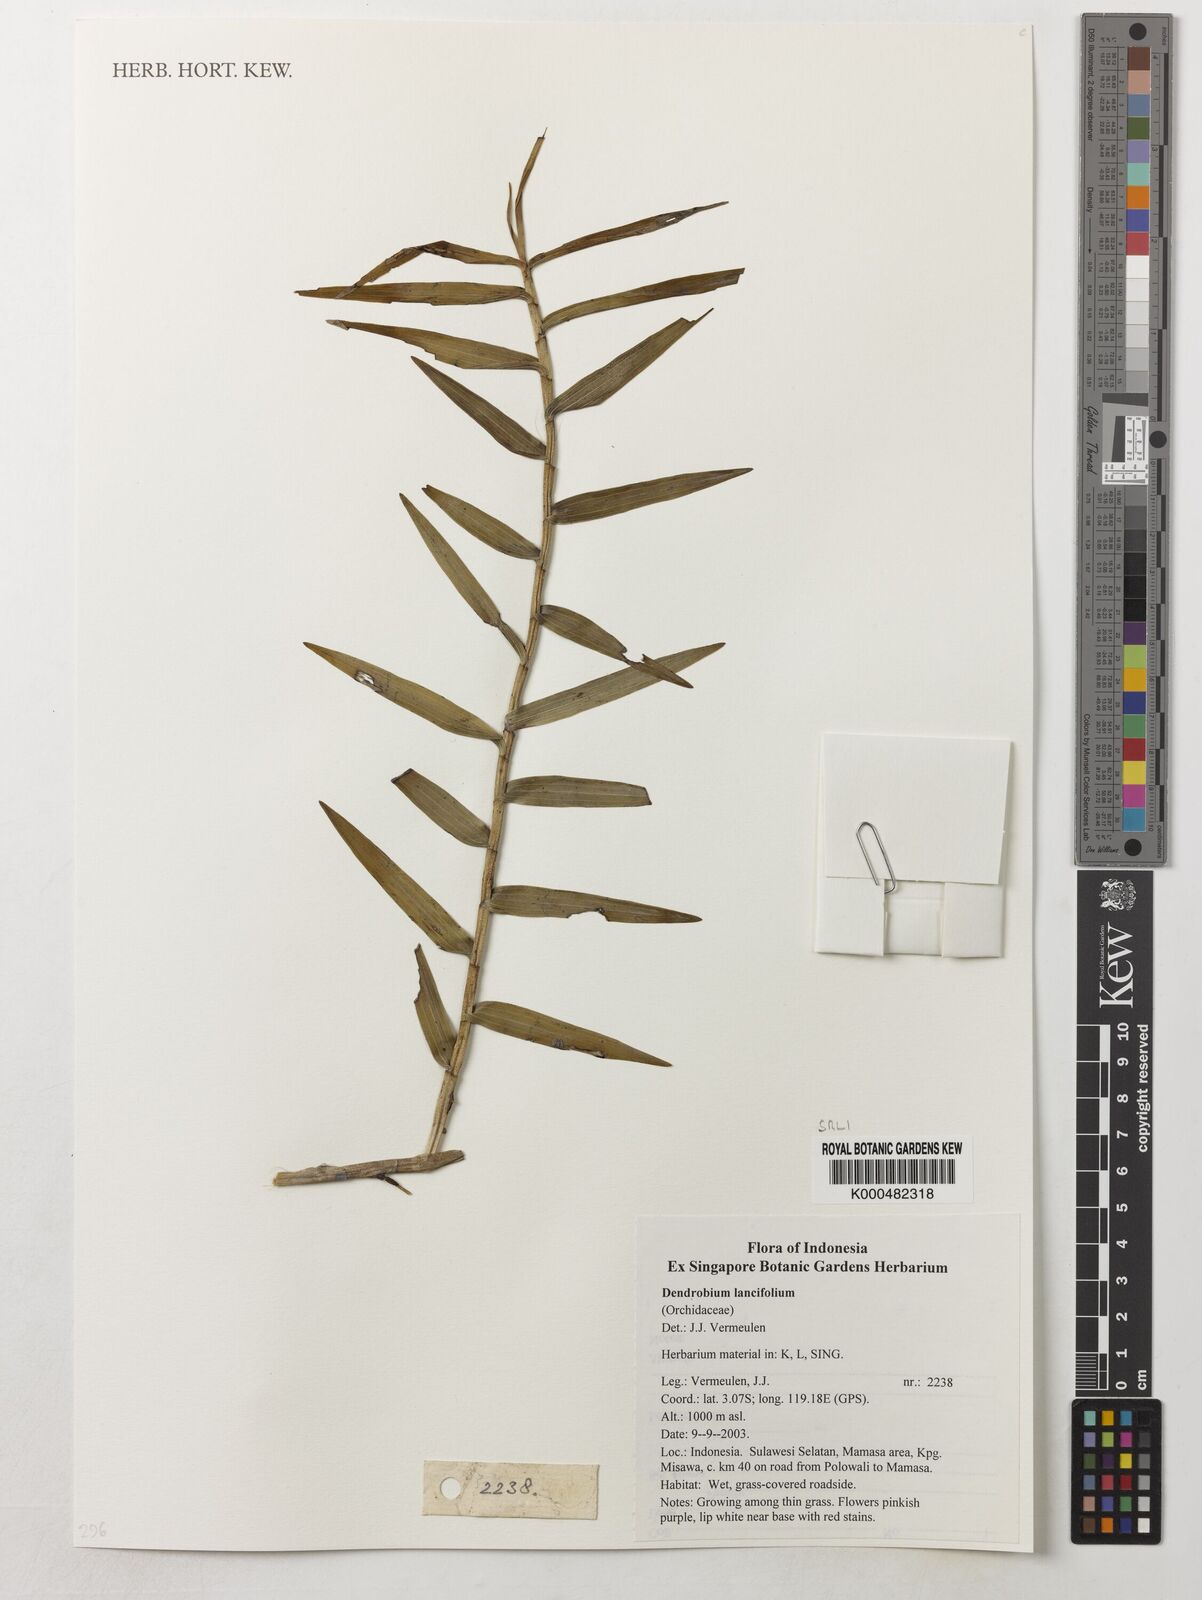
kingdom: Plantae
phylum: Tracheophyta
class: Liliopsida
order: Asparagales
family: Orchidaceae
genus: Dendrobium
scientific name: Dendrobium lanceolatum
